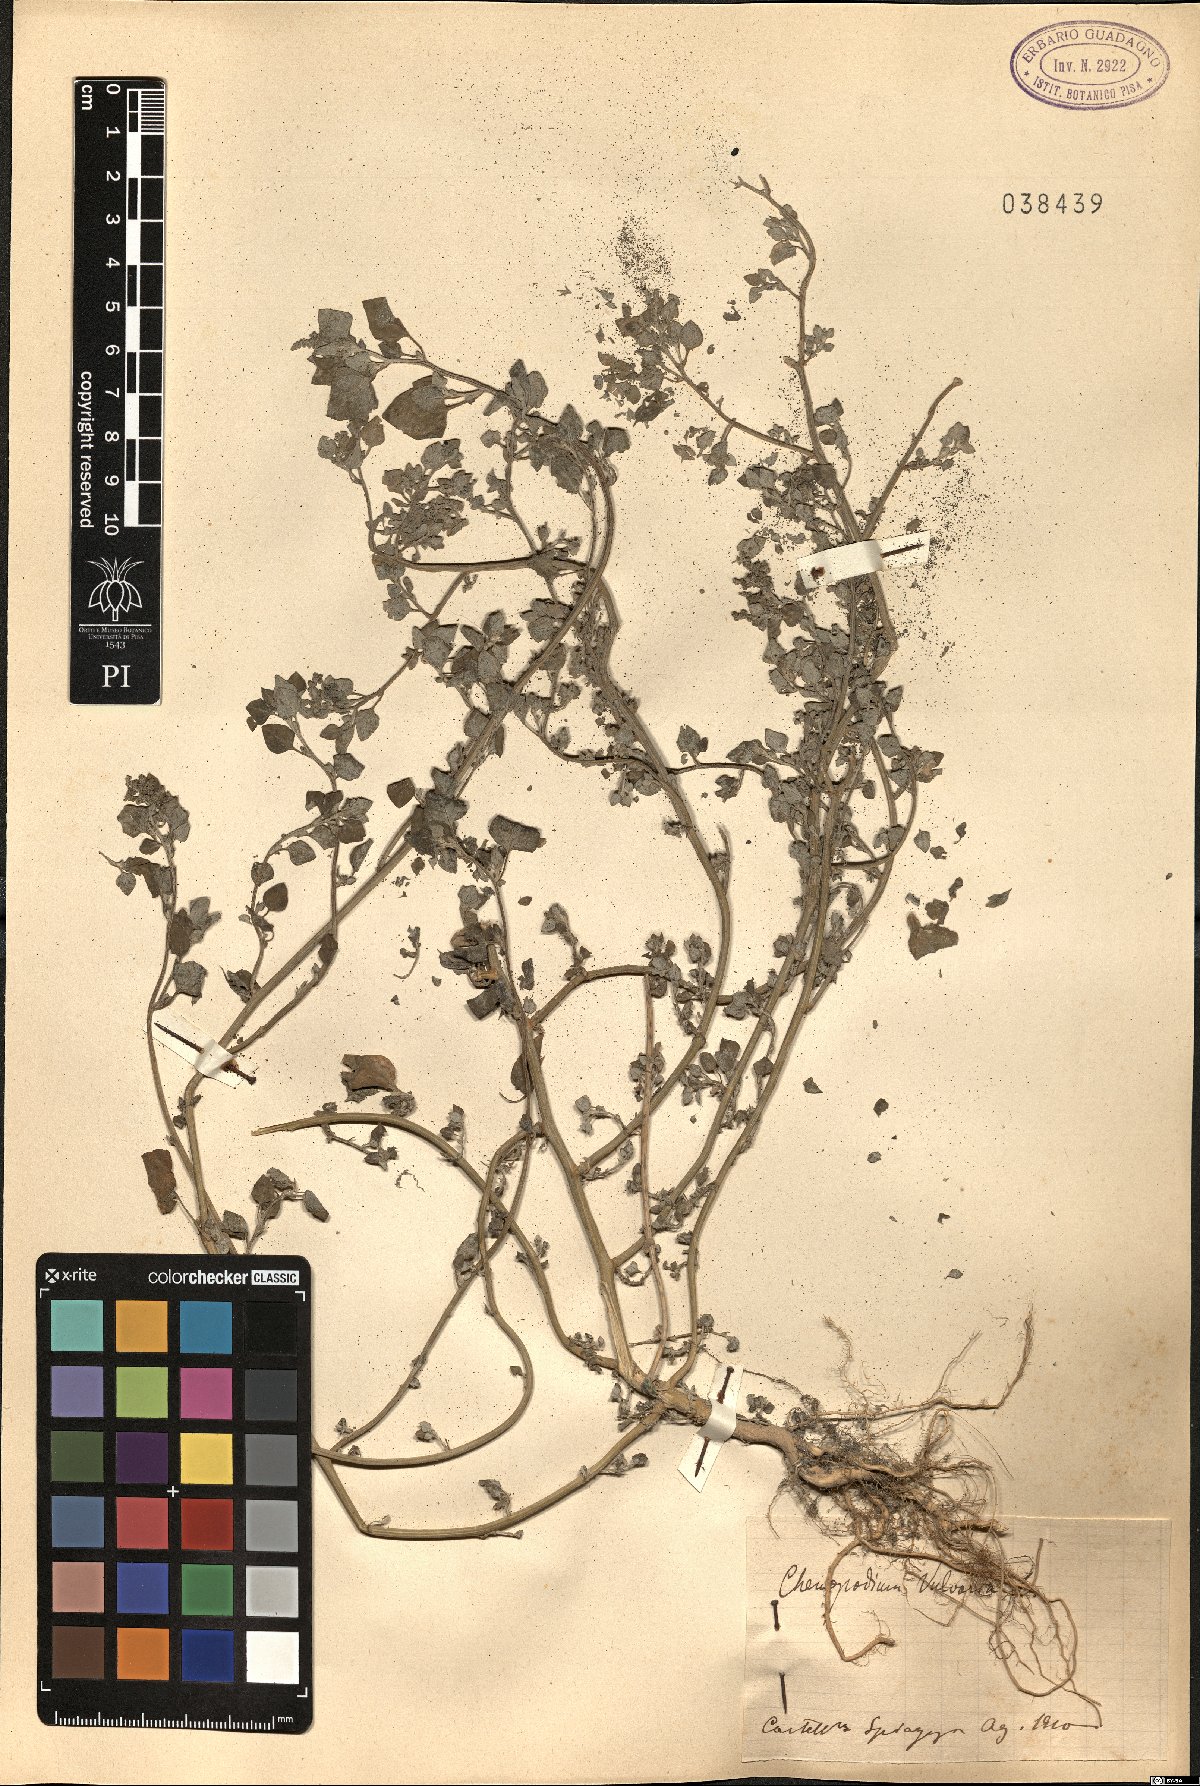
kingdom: Plantae
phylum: Tracheophyta
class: Magnoliopsida
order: Caryophyllales
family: Amaranthaceae
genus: Chenopodium
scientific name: Chenopodium vulvaria
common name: Stinking goosefoot
